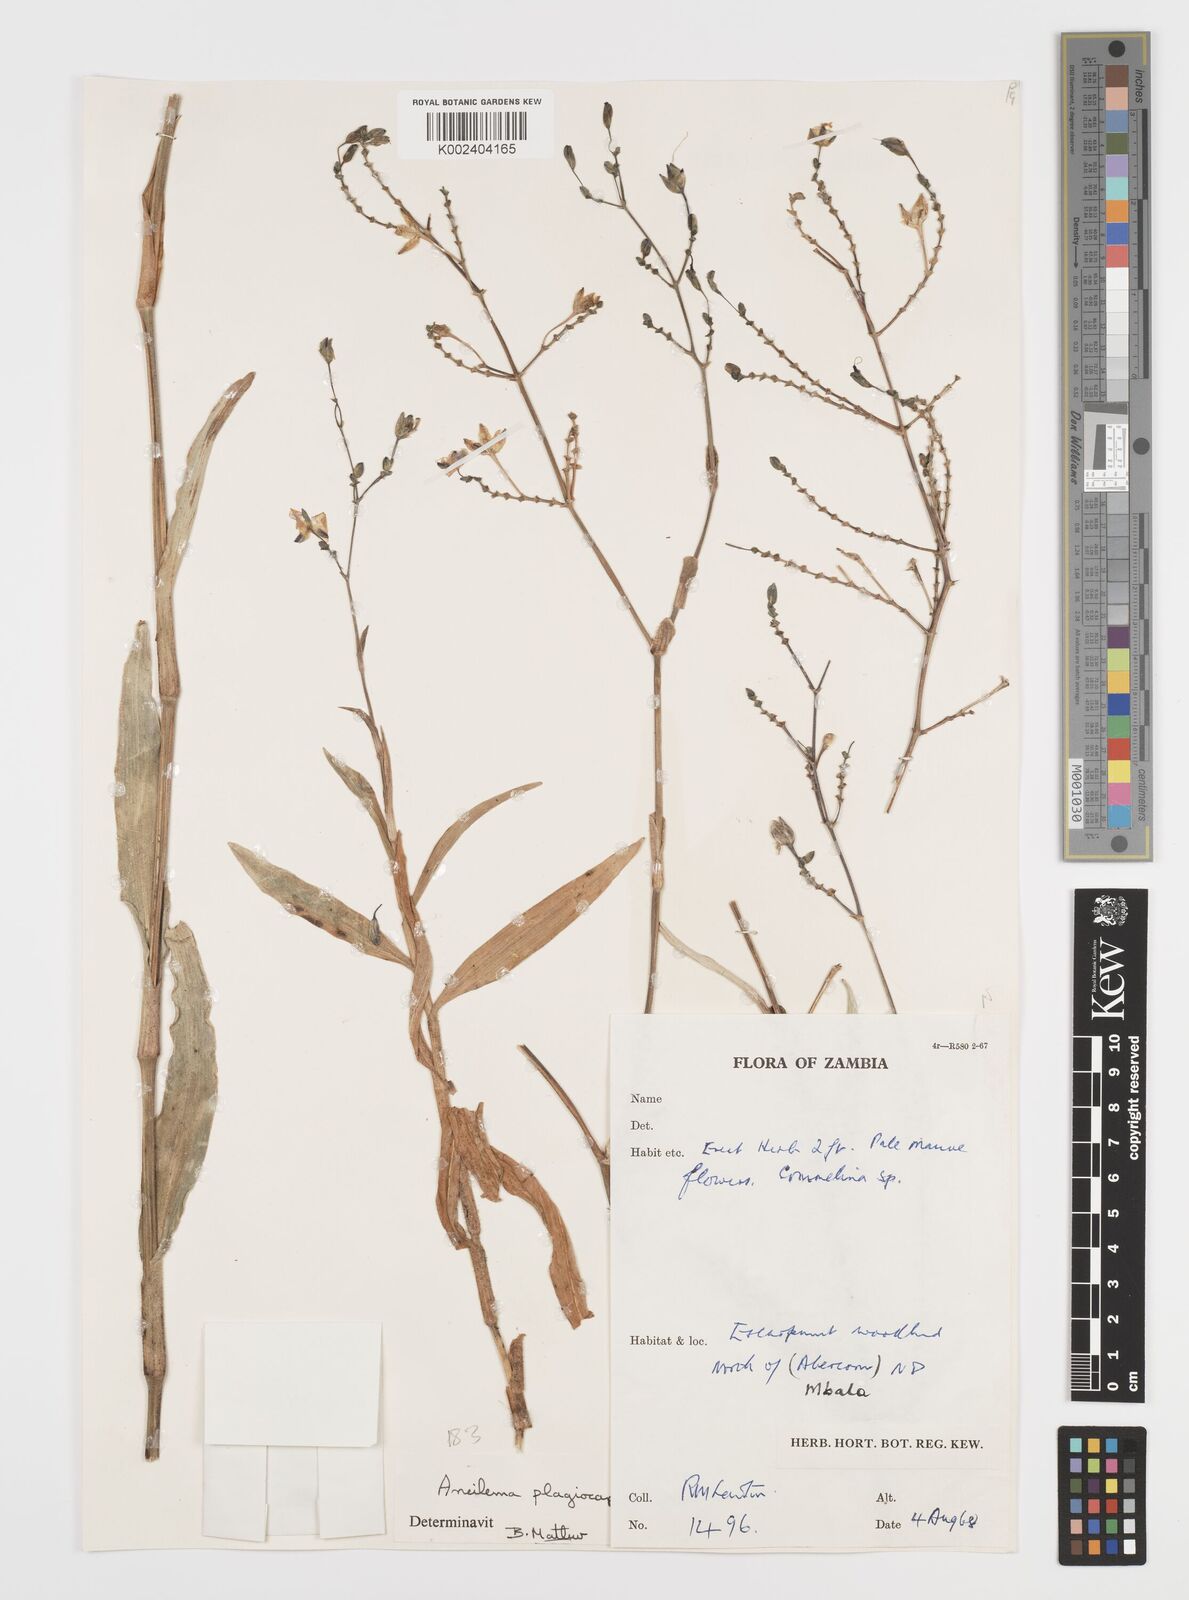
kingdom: Plantae
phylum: Tracheophyta
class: Liliopsida
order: Commelinales
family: Commelinaceae
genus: Aneilema
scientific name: Aneilema plagiocapsa
